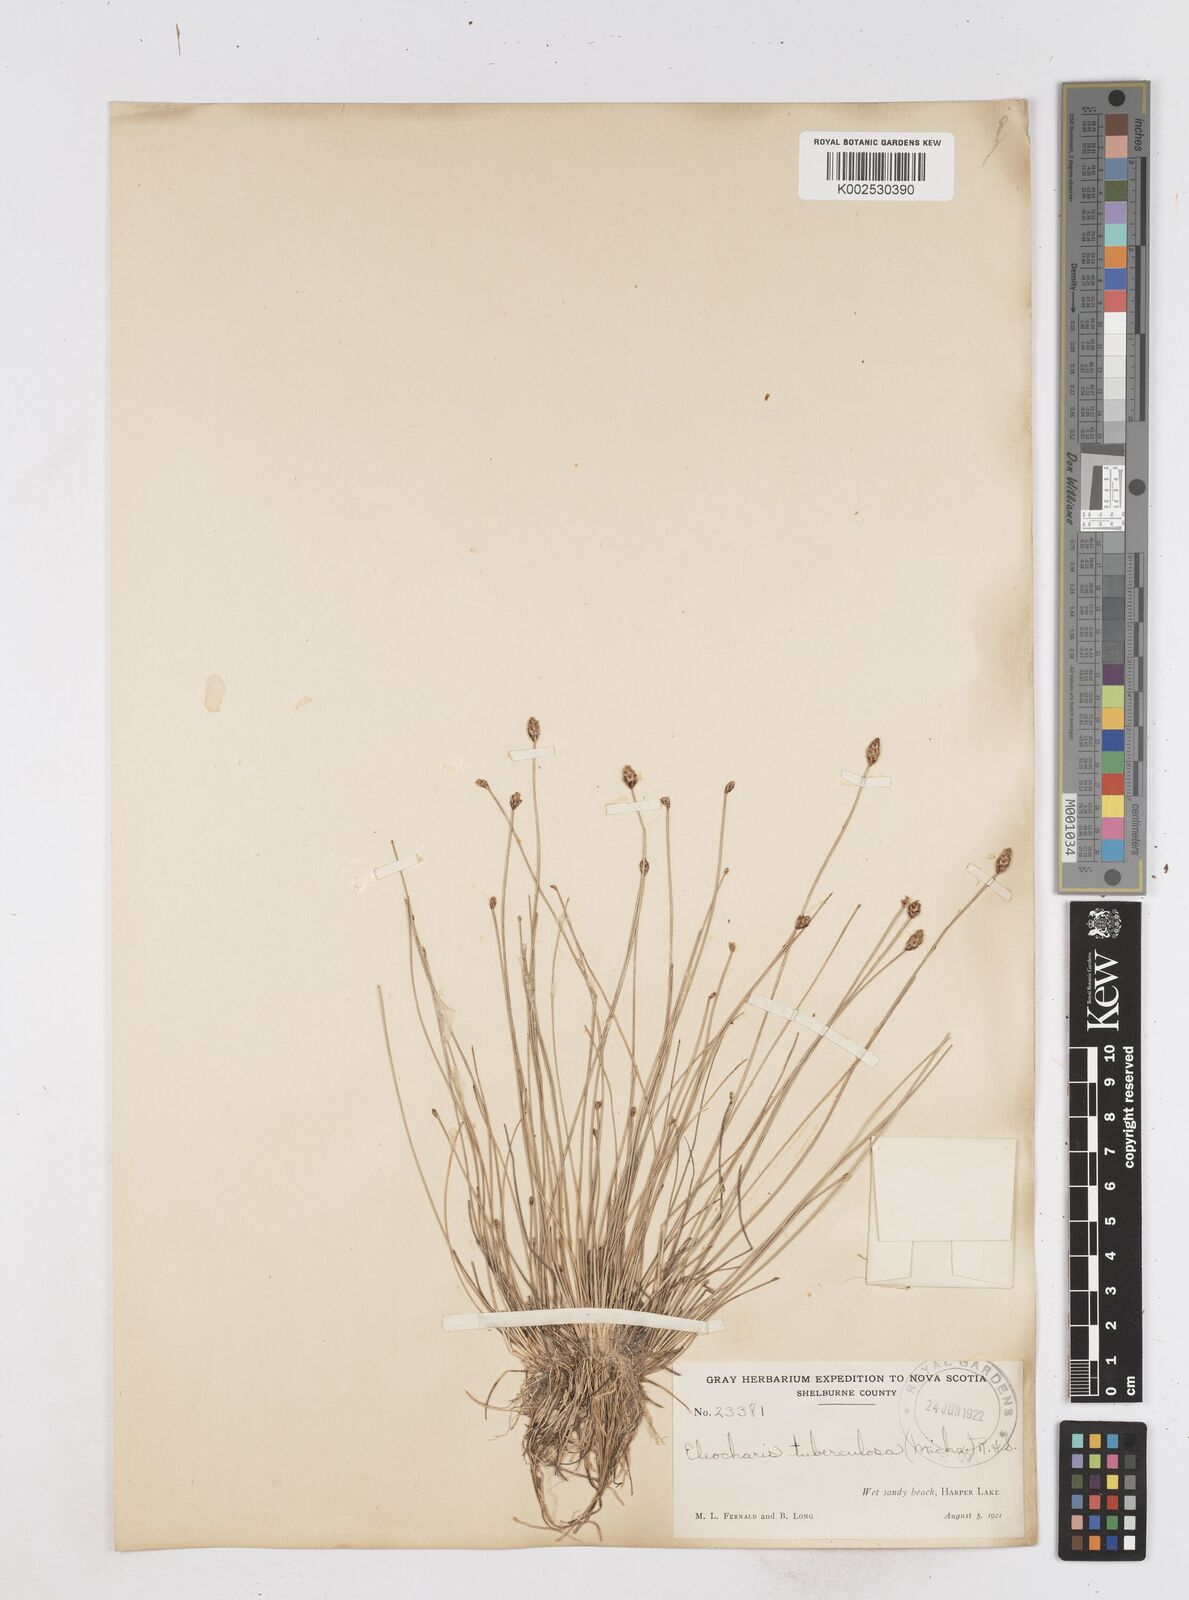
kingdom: Plantae
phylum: Tracheophyta
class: Liliopsida
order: Poales
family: Cyperaceae
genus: Eleocharis
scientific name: Eleocharis tuberculosa
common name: Cone-cup spikerush
